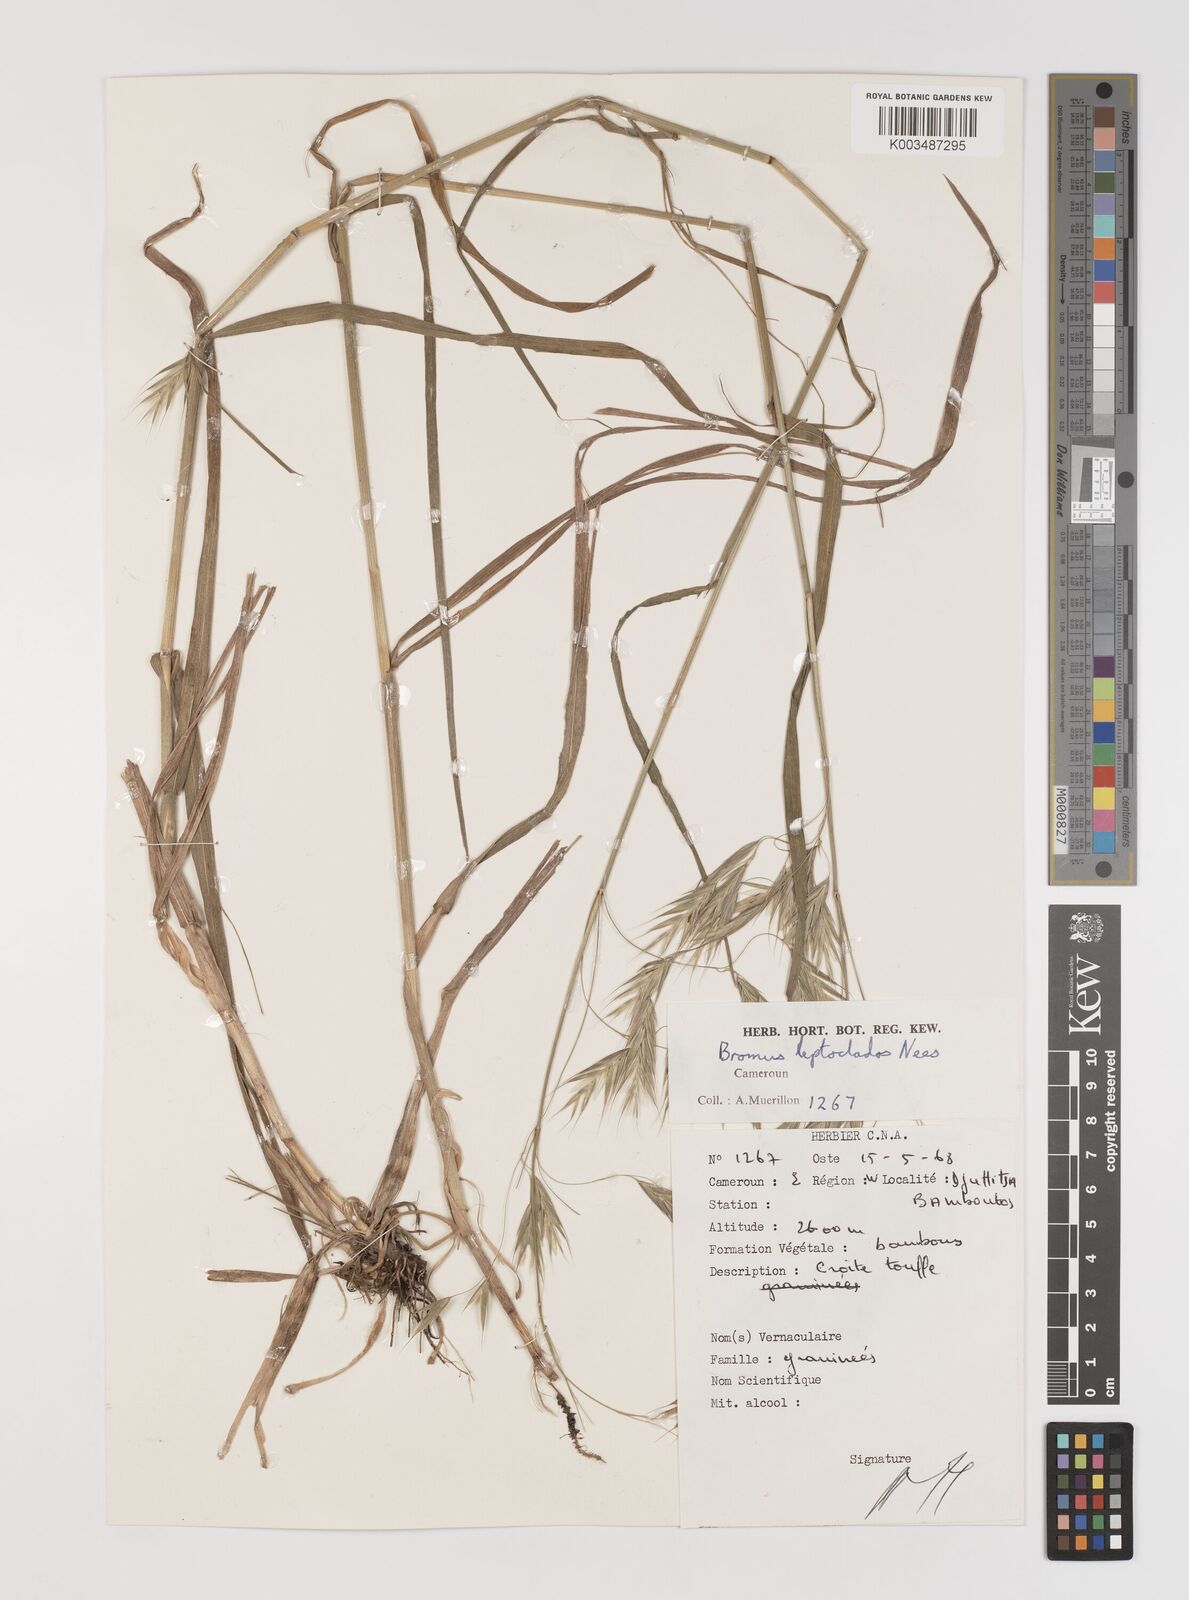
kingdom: Plantae
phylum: Tracheophyta
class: Liliopsida
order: Poales
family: Poaceae
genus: Bromus
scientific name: Bromus leptoclados
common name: Mountain bromegrass
